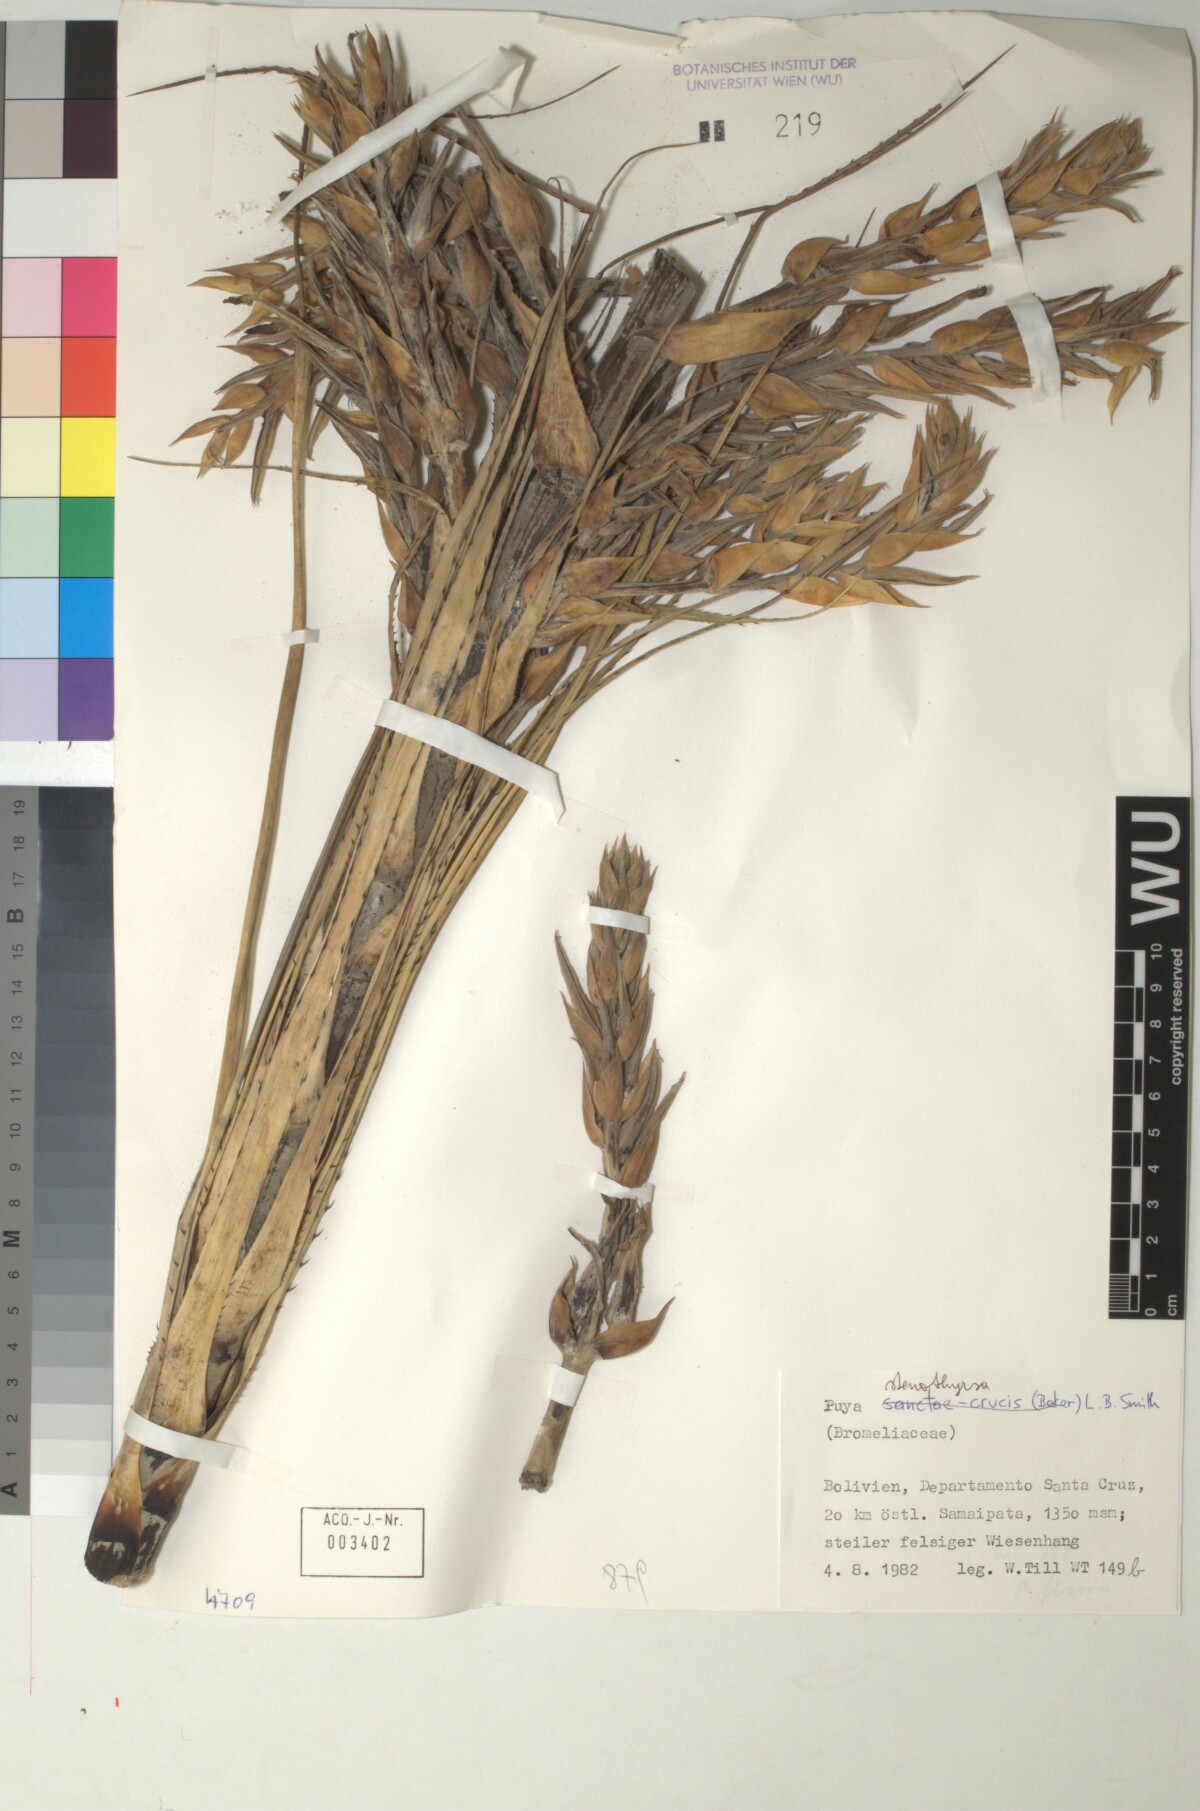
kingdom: Plantae
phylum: Tracheophyta
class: Liliopsida
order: Poales
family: Bromeliaceae
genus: Puya
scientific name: Puya stenothyrsa
